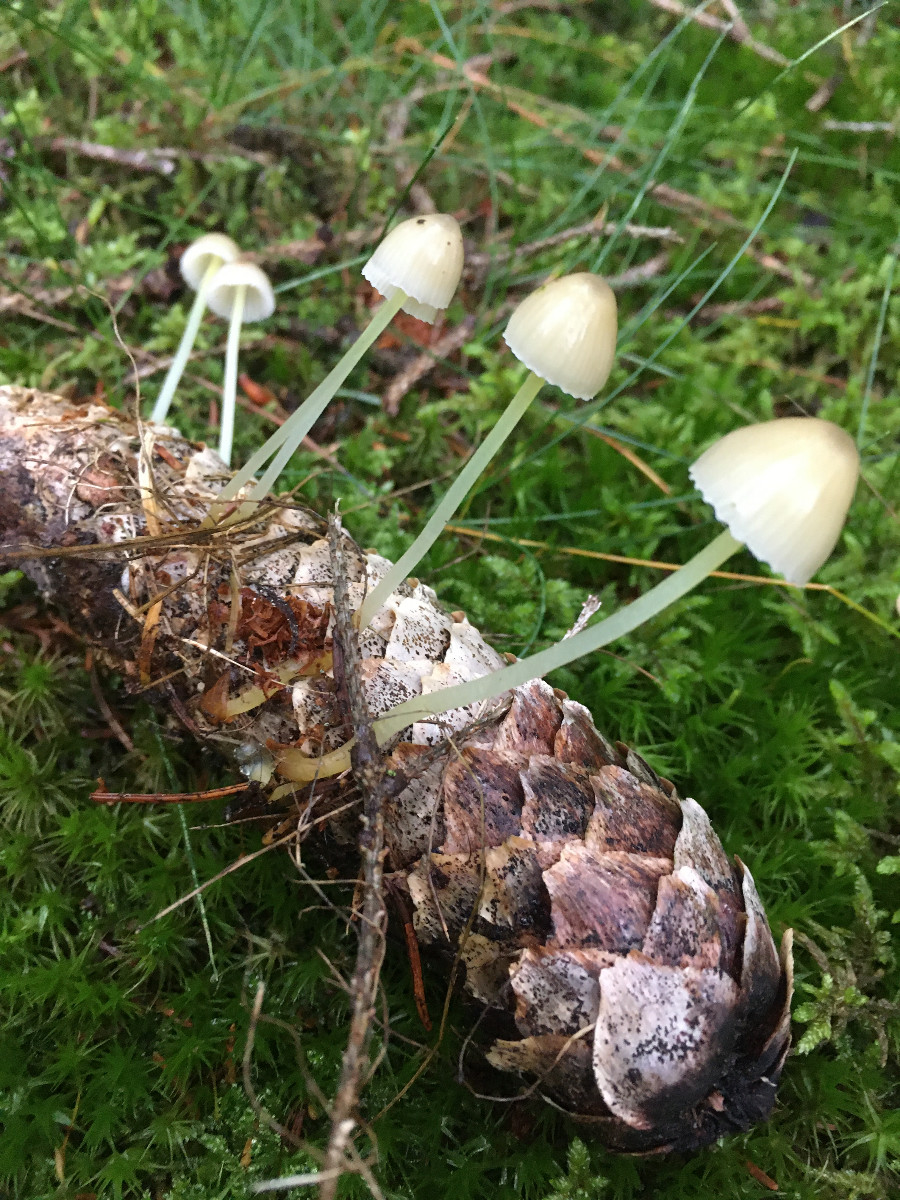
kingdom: Fungi
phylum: Basidiomycota
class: Agaricomycetes
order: Agaricales
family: Mycenaceae
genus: Mycena
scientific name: Mycena epipterygia
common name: gulstokket huesvamp
